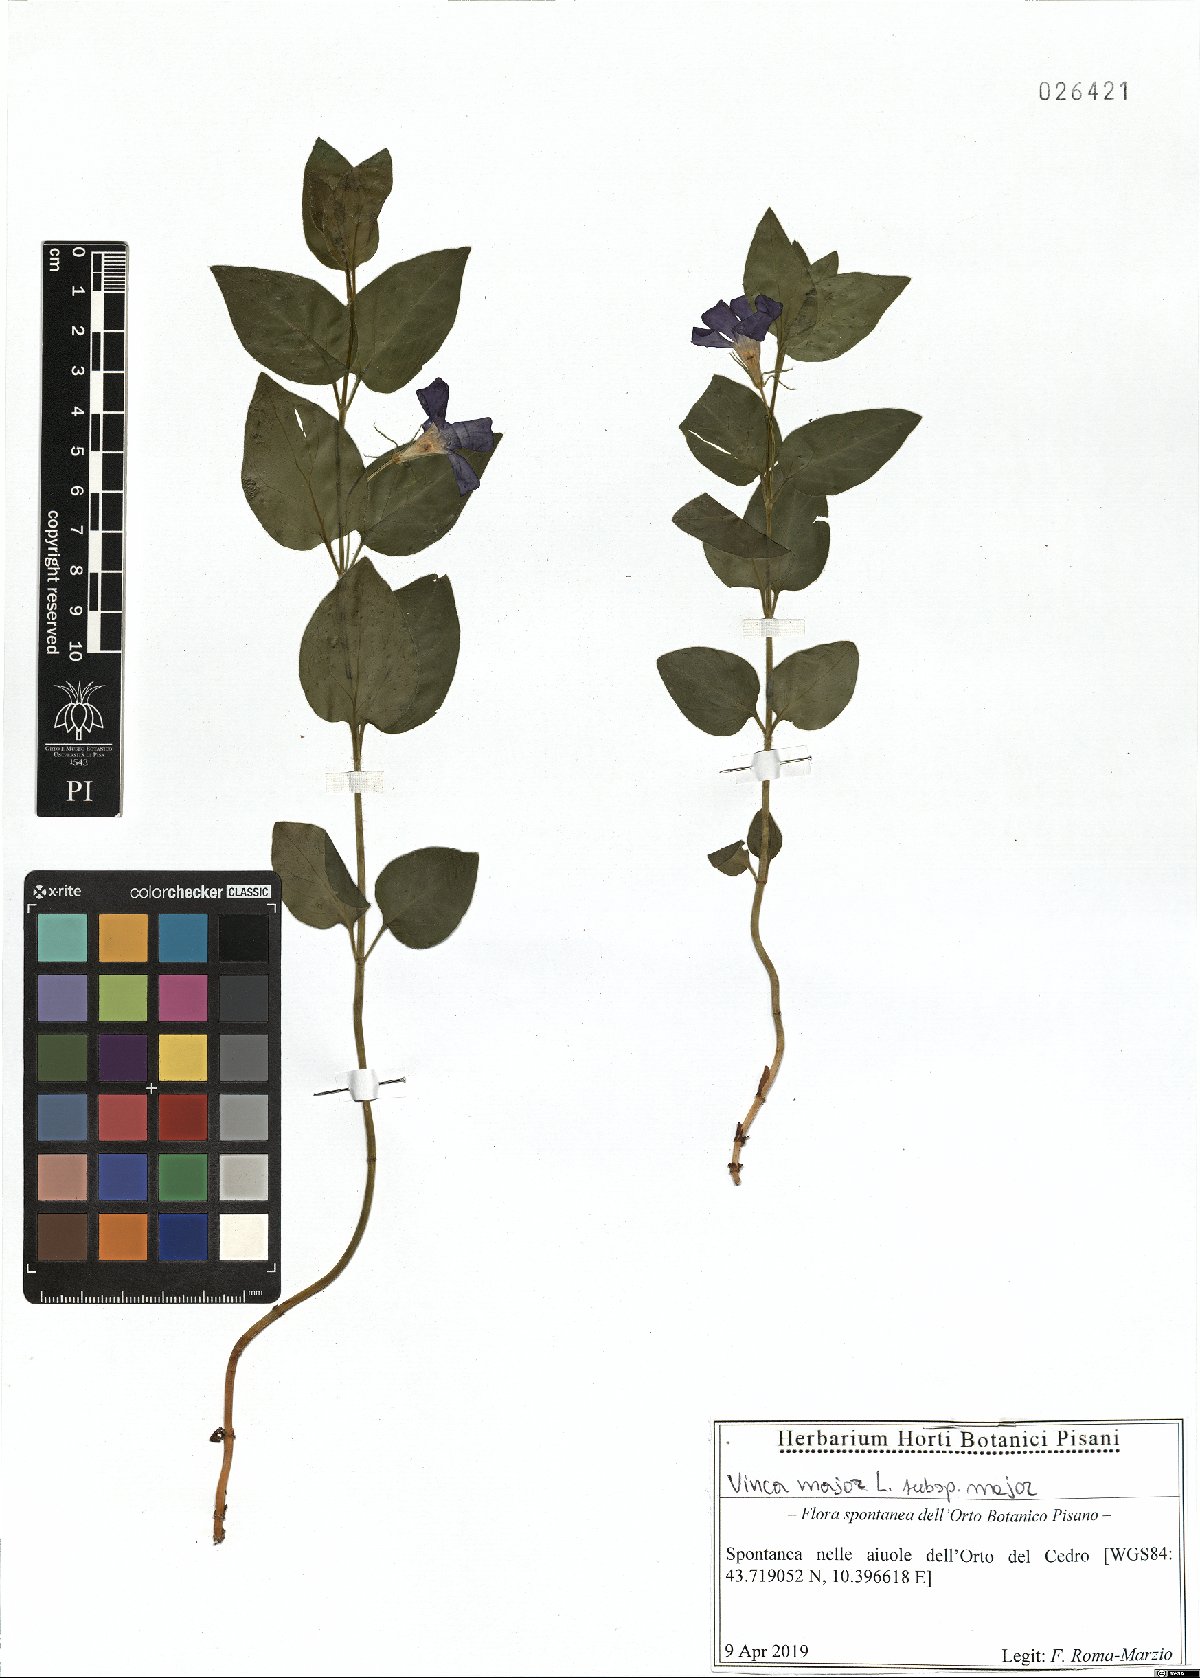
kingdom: Plantae
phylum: Tracheophyta
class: Magnoliopsida
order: Gentianales
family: Apocynaceae
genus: Vinca
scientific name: Vinca major
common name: Greater periwinkle
